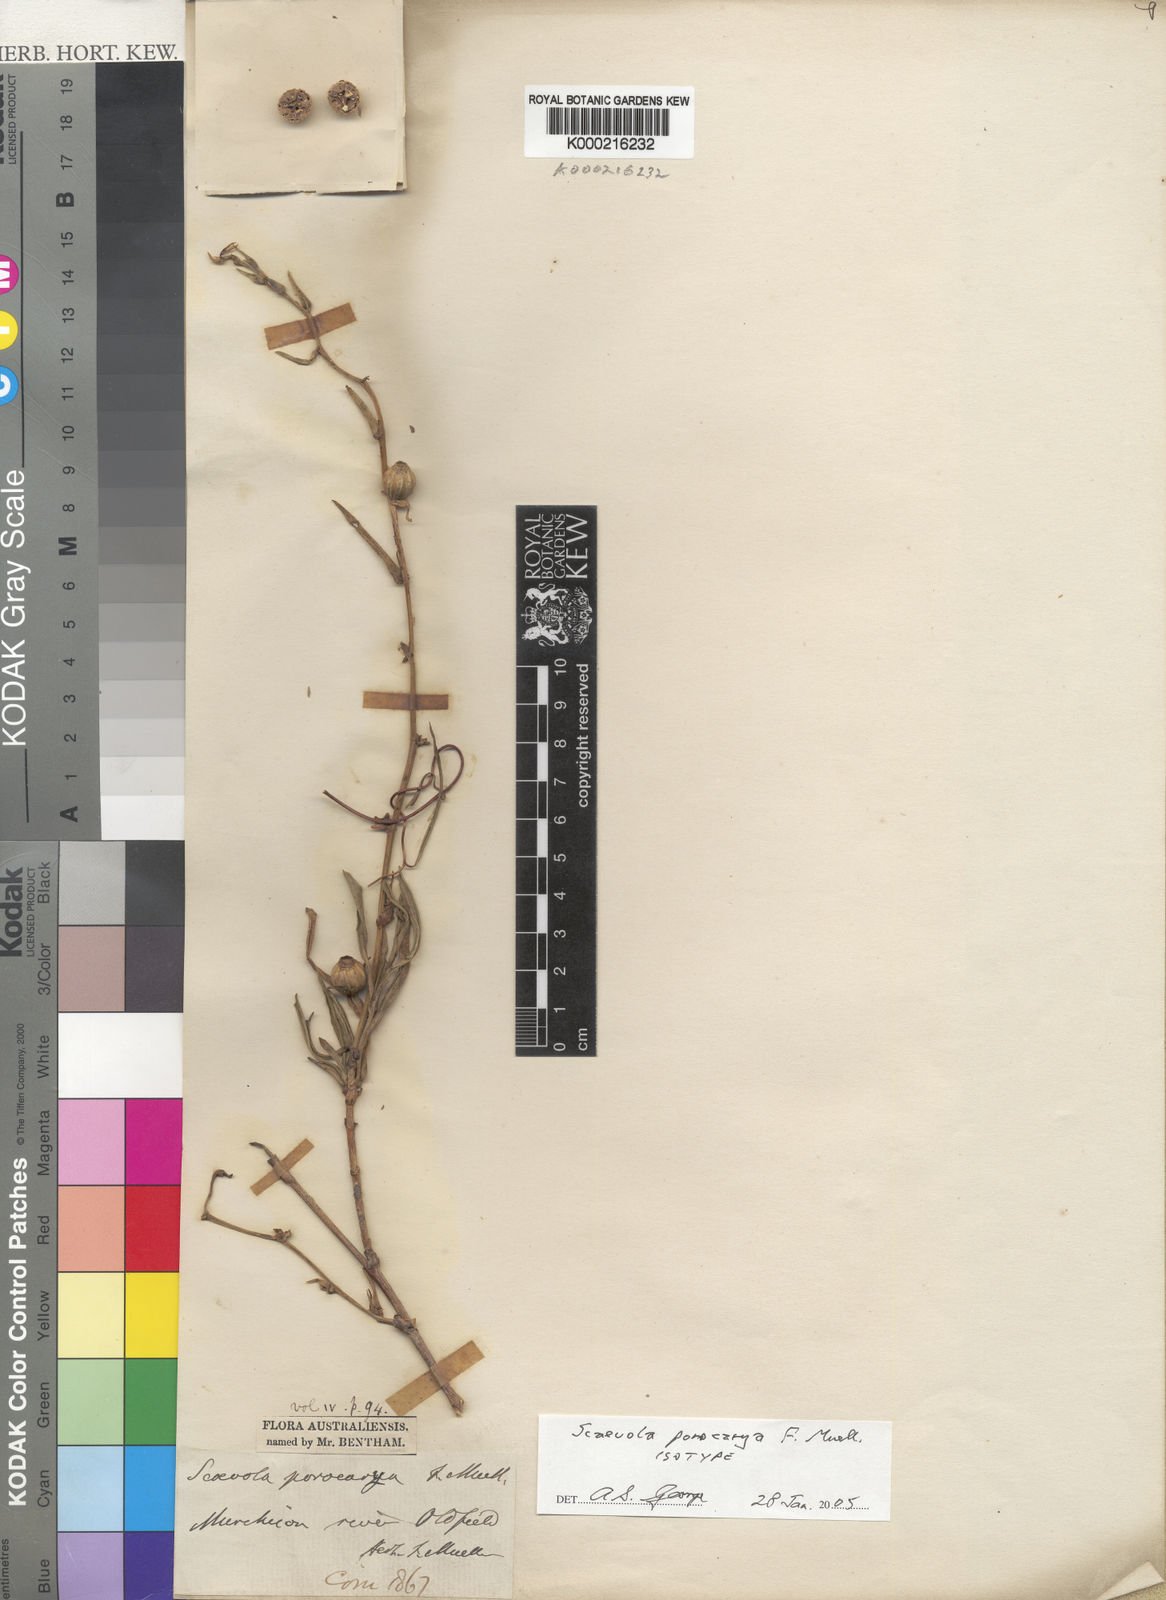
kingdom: Plantae
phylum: Tracheophyta
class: Magnoliopsida
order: Asterales
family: Goodeniaceae
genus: Scaevola
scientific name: Scaevola porocarya
